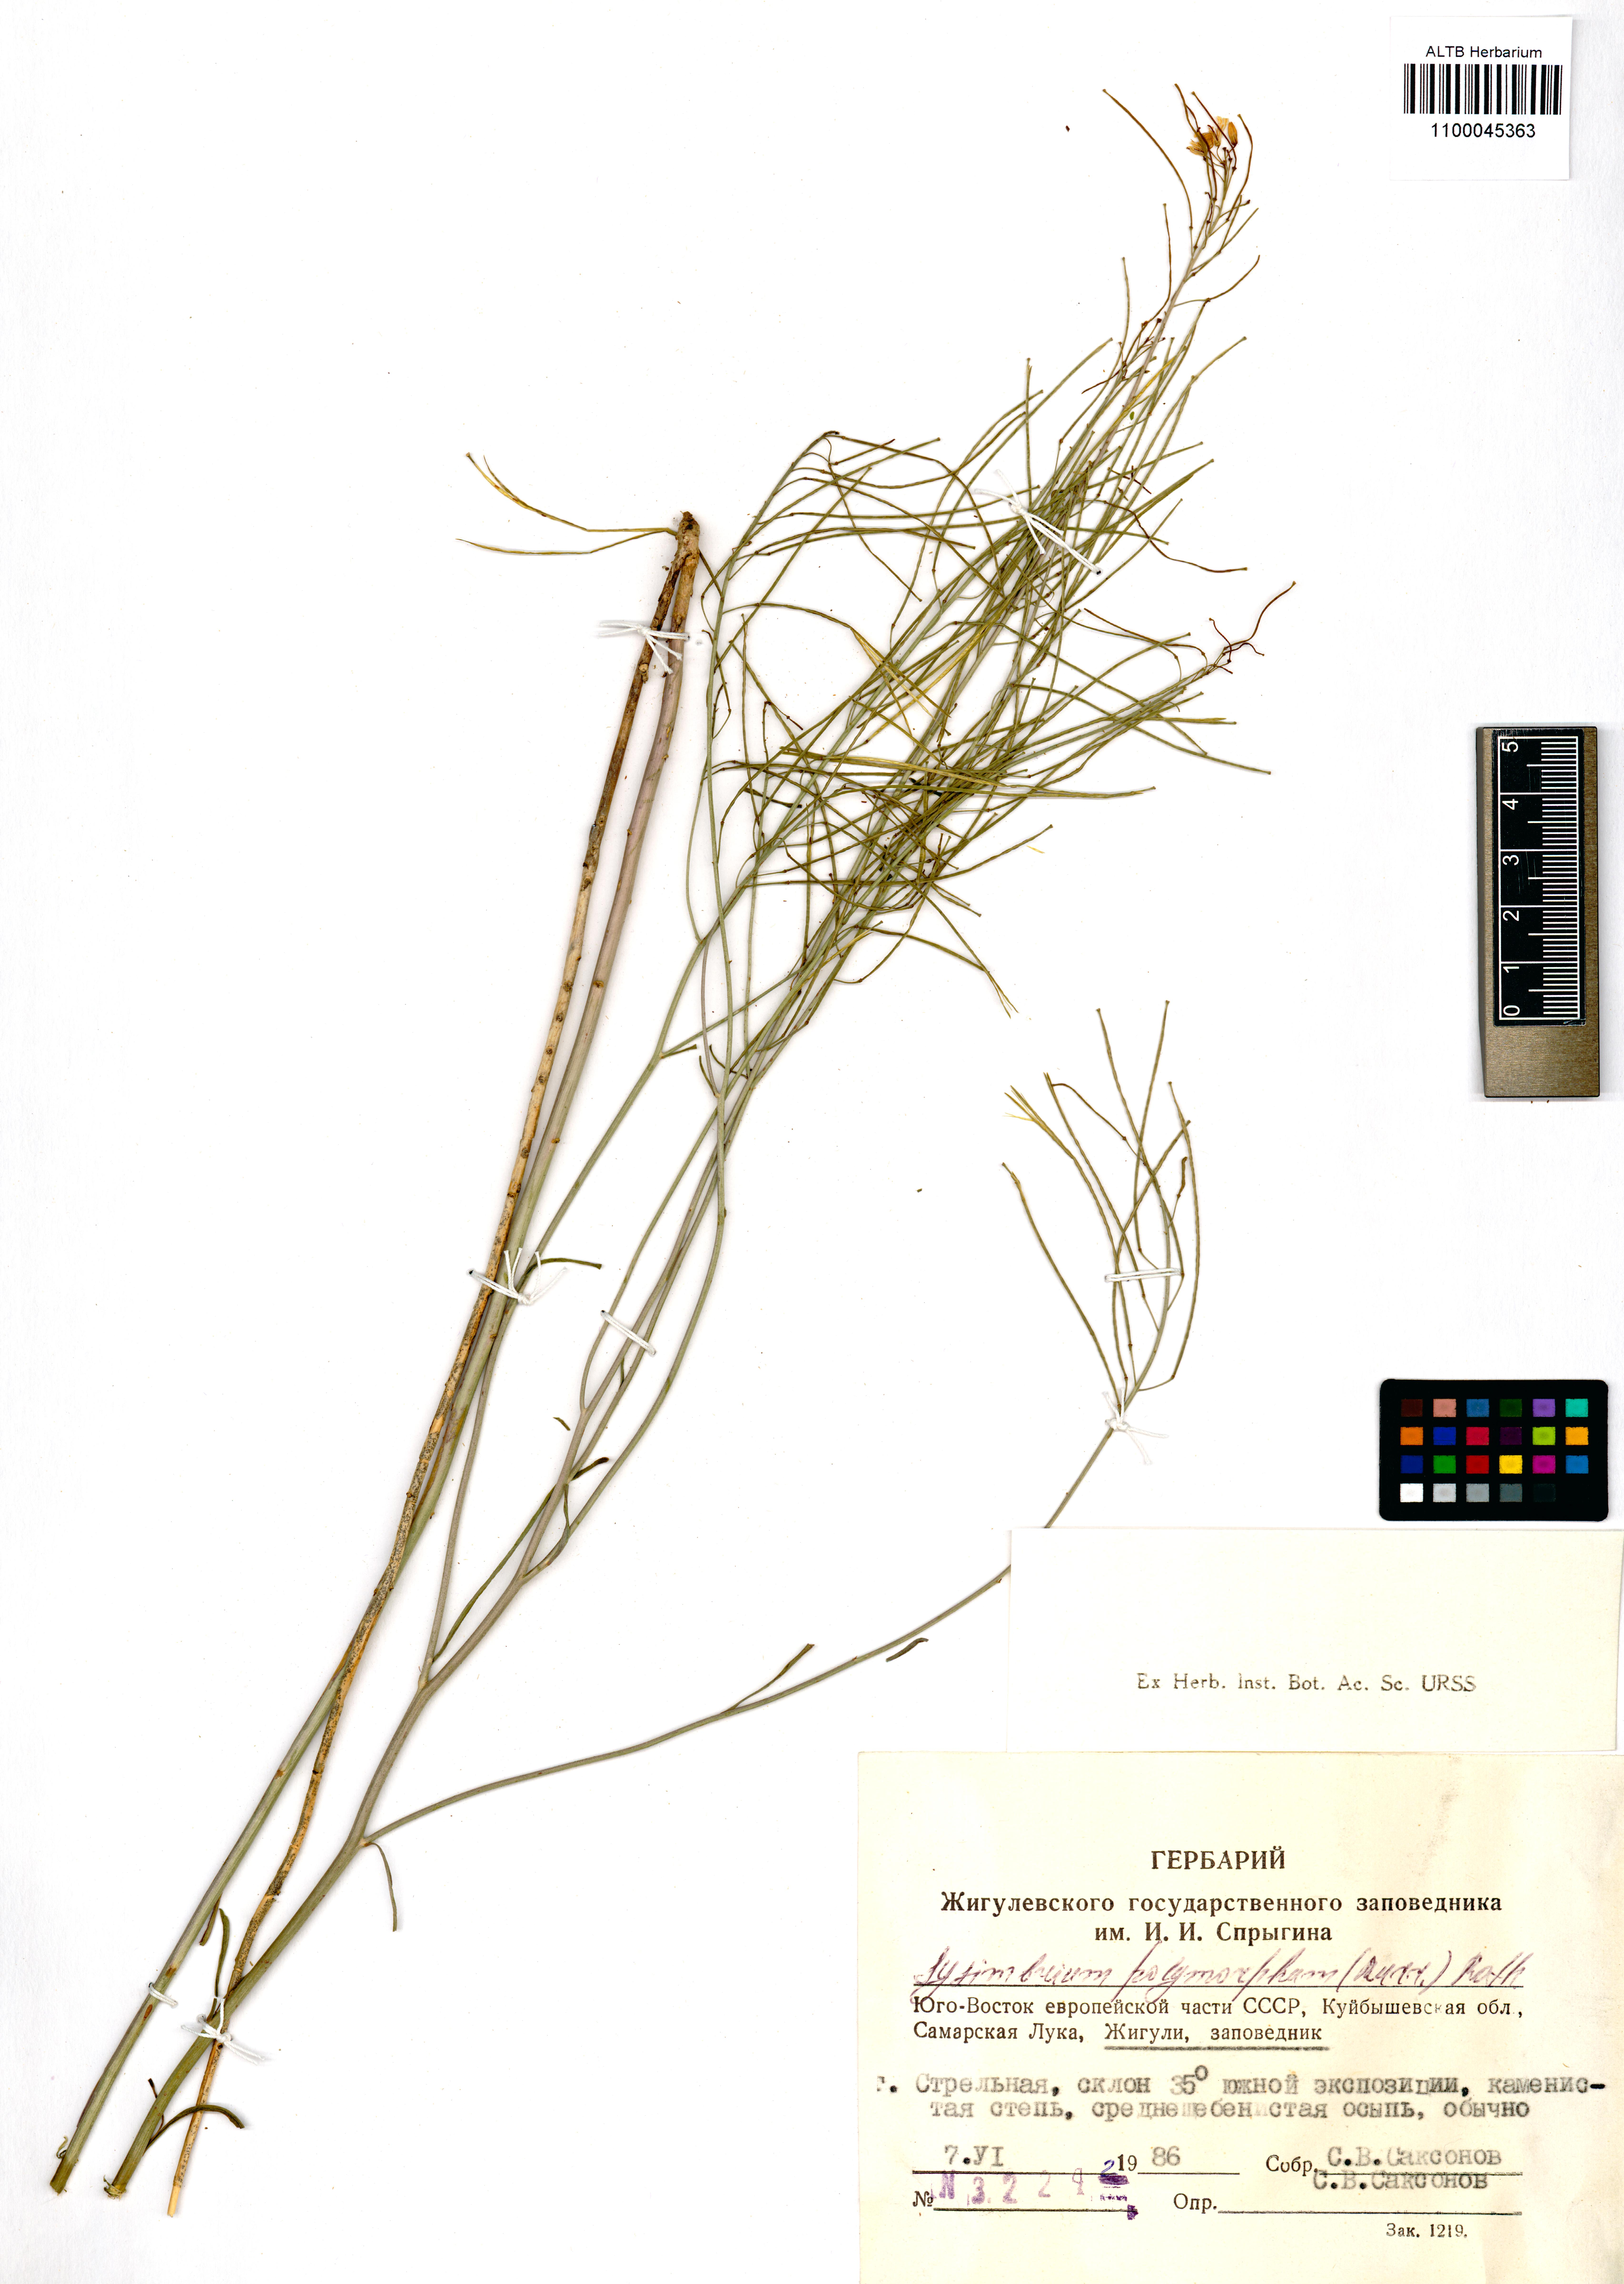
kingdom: Plantae
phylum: Tracheophyta
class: Magnoliopsida
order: Brassicales
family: Brassicaceae
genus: Sisymbrium
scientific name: Sisymbrium polymorphum
